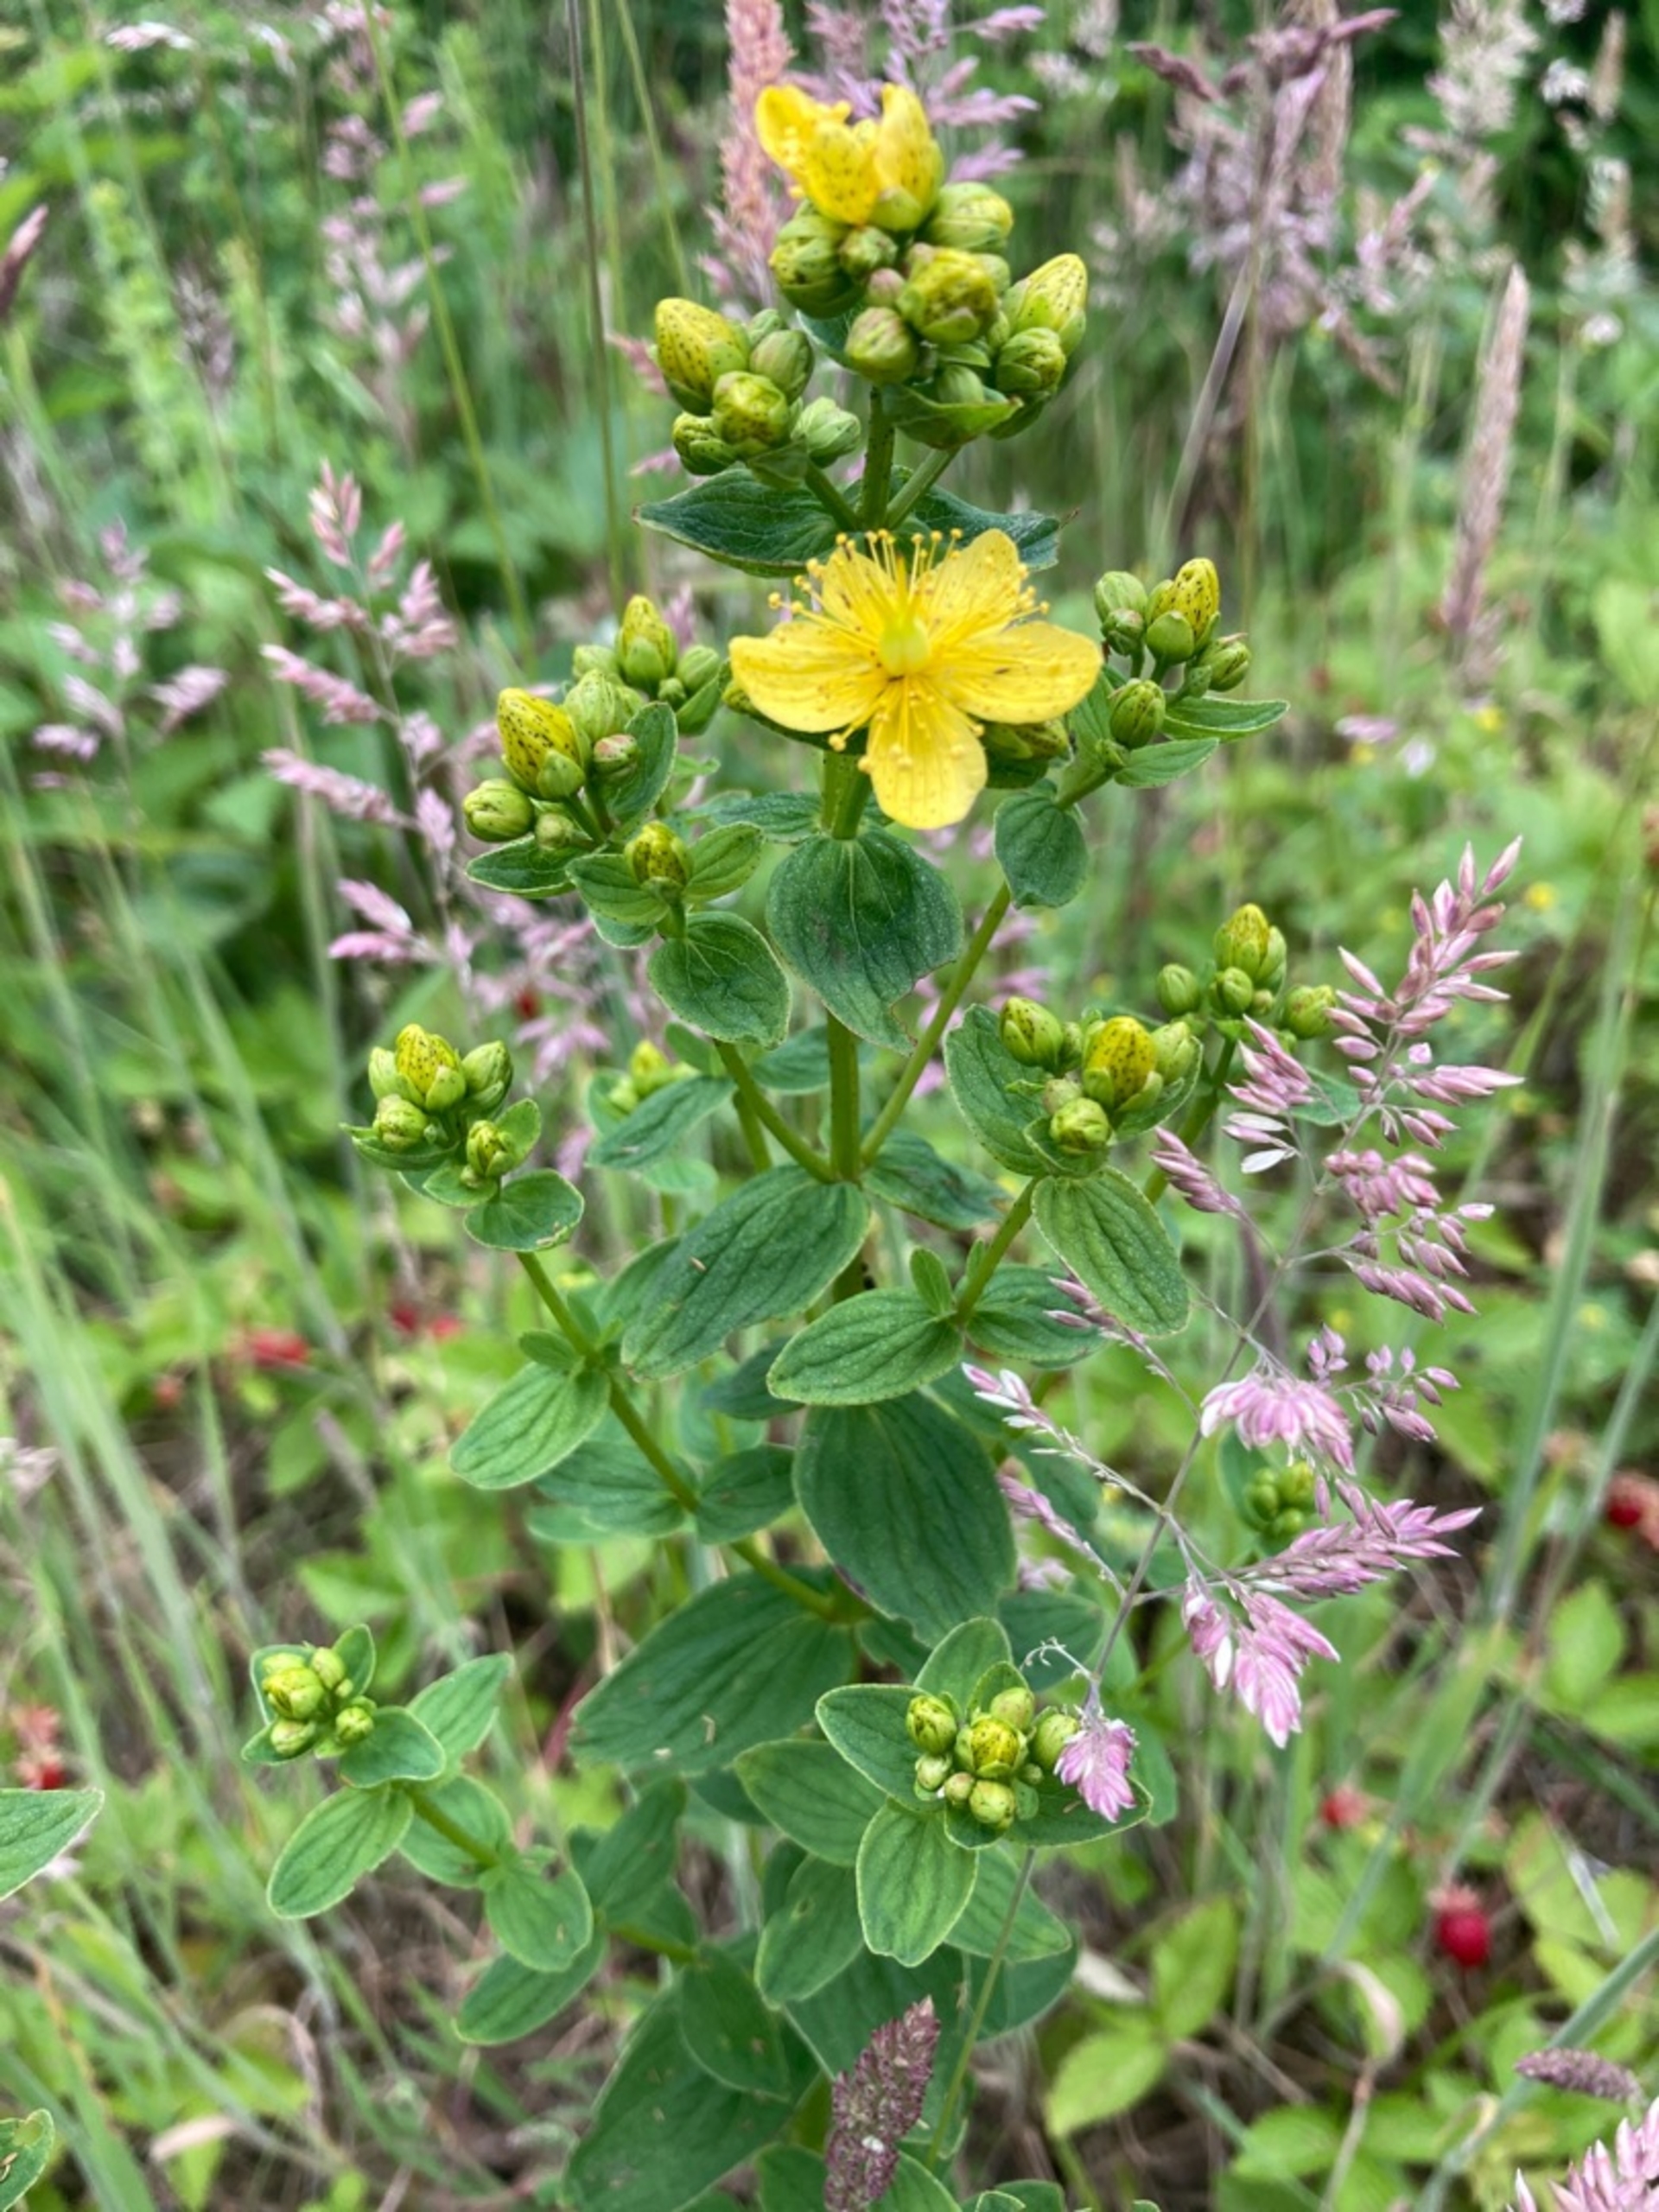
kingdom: Plantae
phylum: Tracheophyta
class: Magnoliopsida
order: Malpighiales
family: Hypericaceae
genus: Hypericum
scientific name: Hypericum maculatum
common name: Kantet perikon
